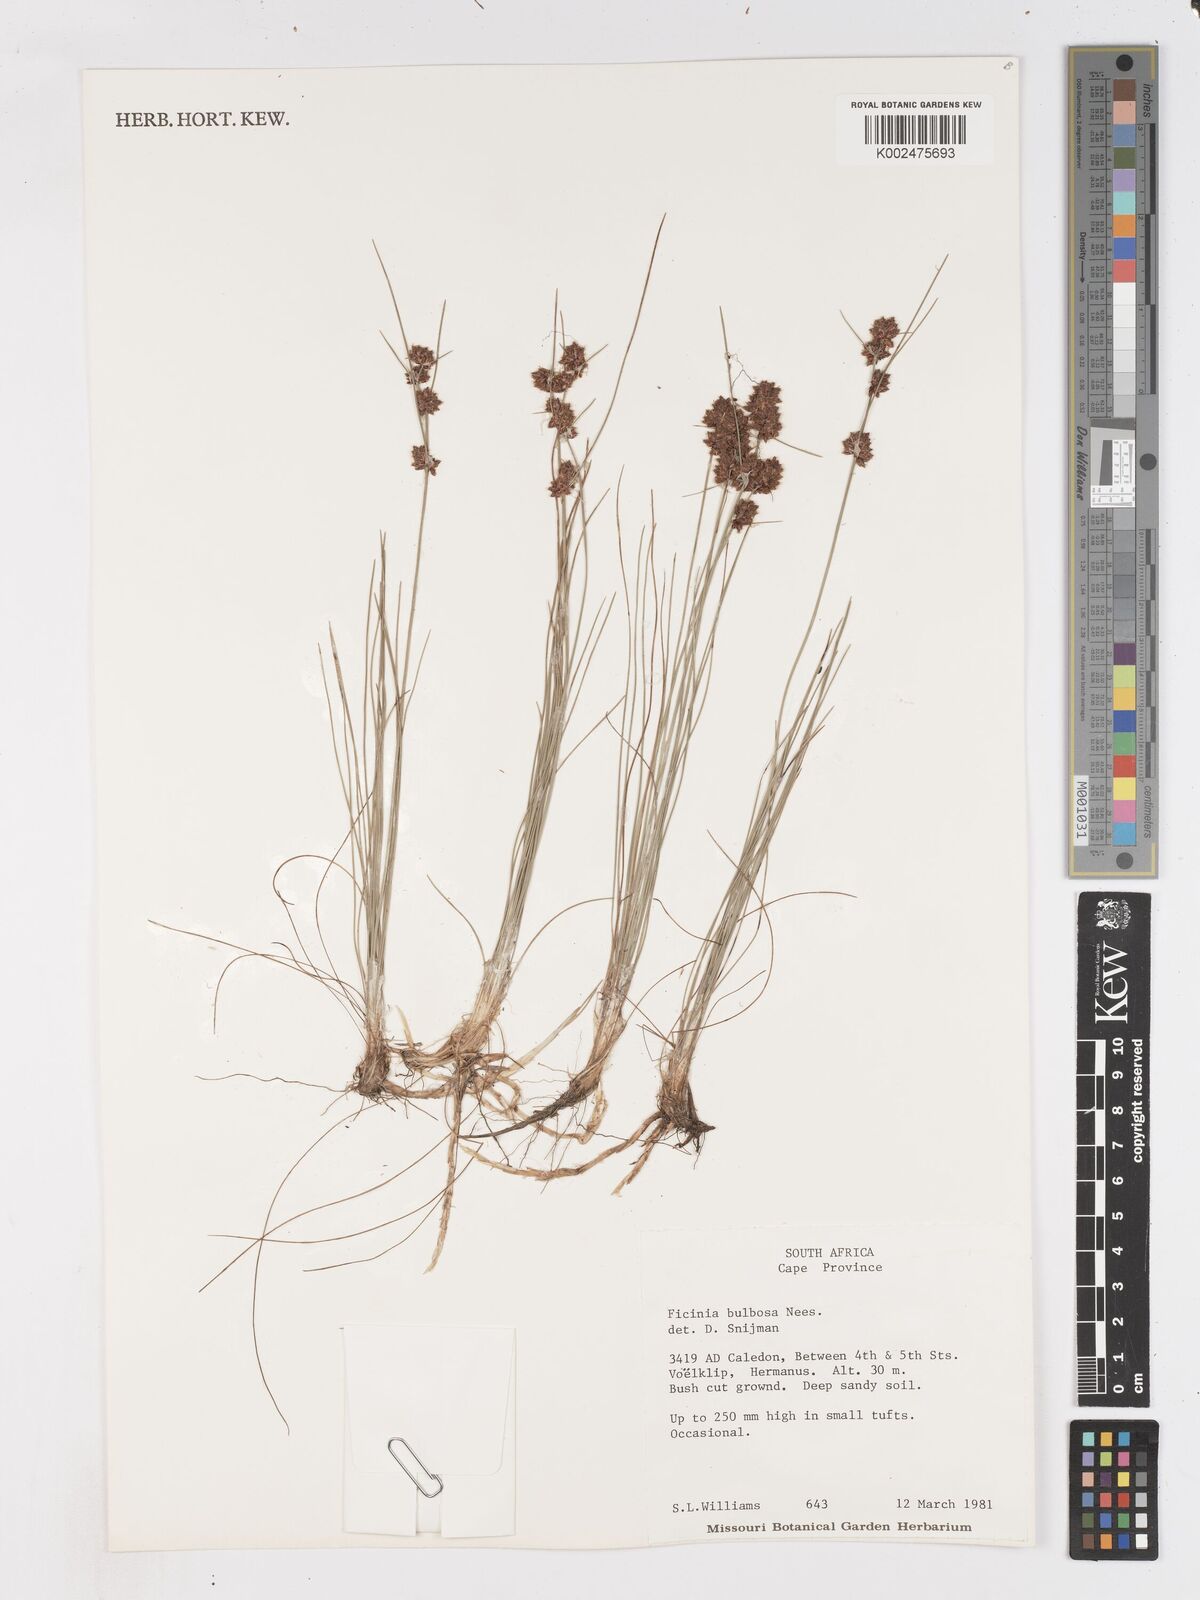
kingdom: Plantae
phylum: Tracheophyta
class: Liliopsida
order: Poales
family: Cyperaceae
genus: Ficinia
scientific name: Ficinia bulbosa
